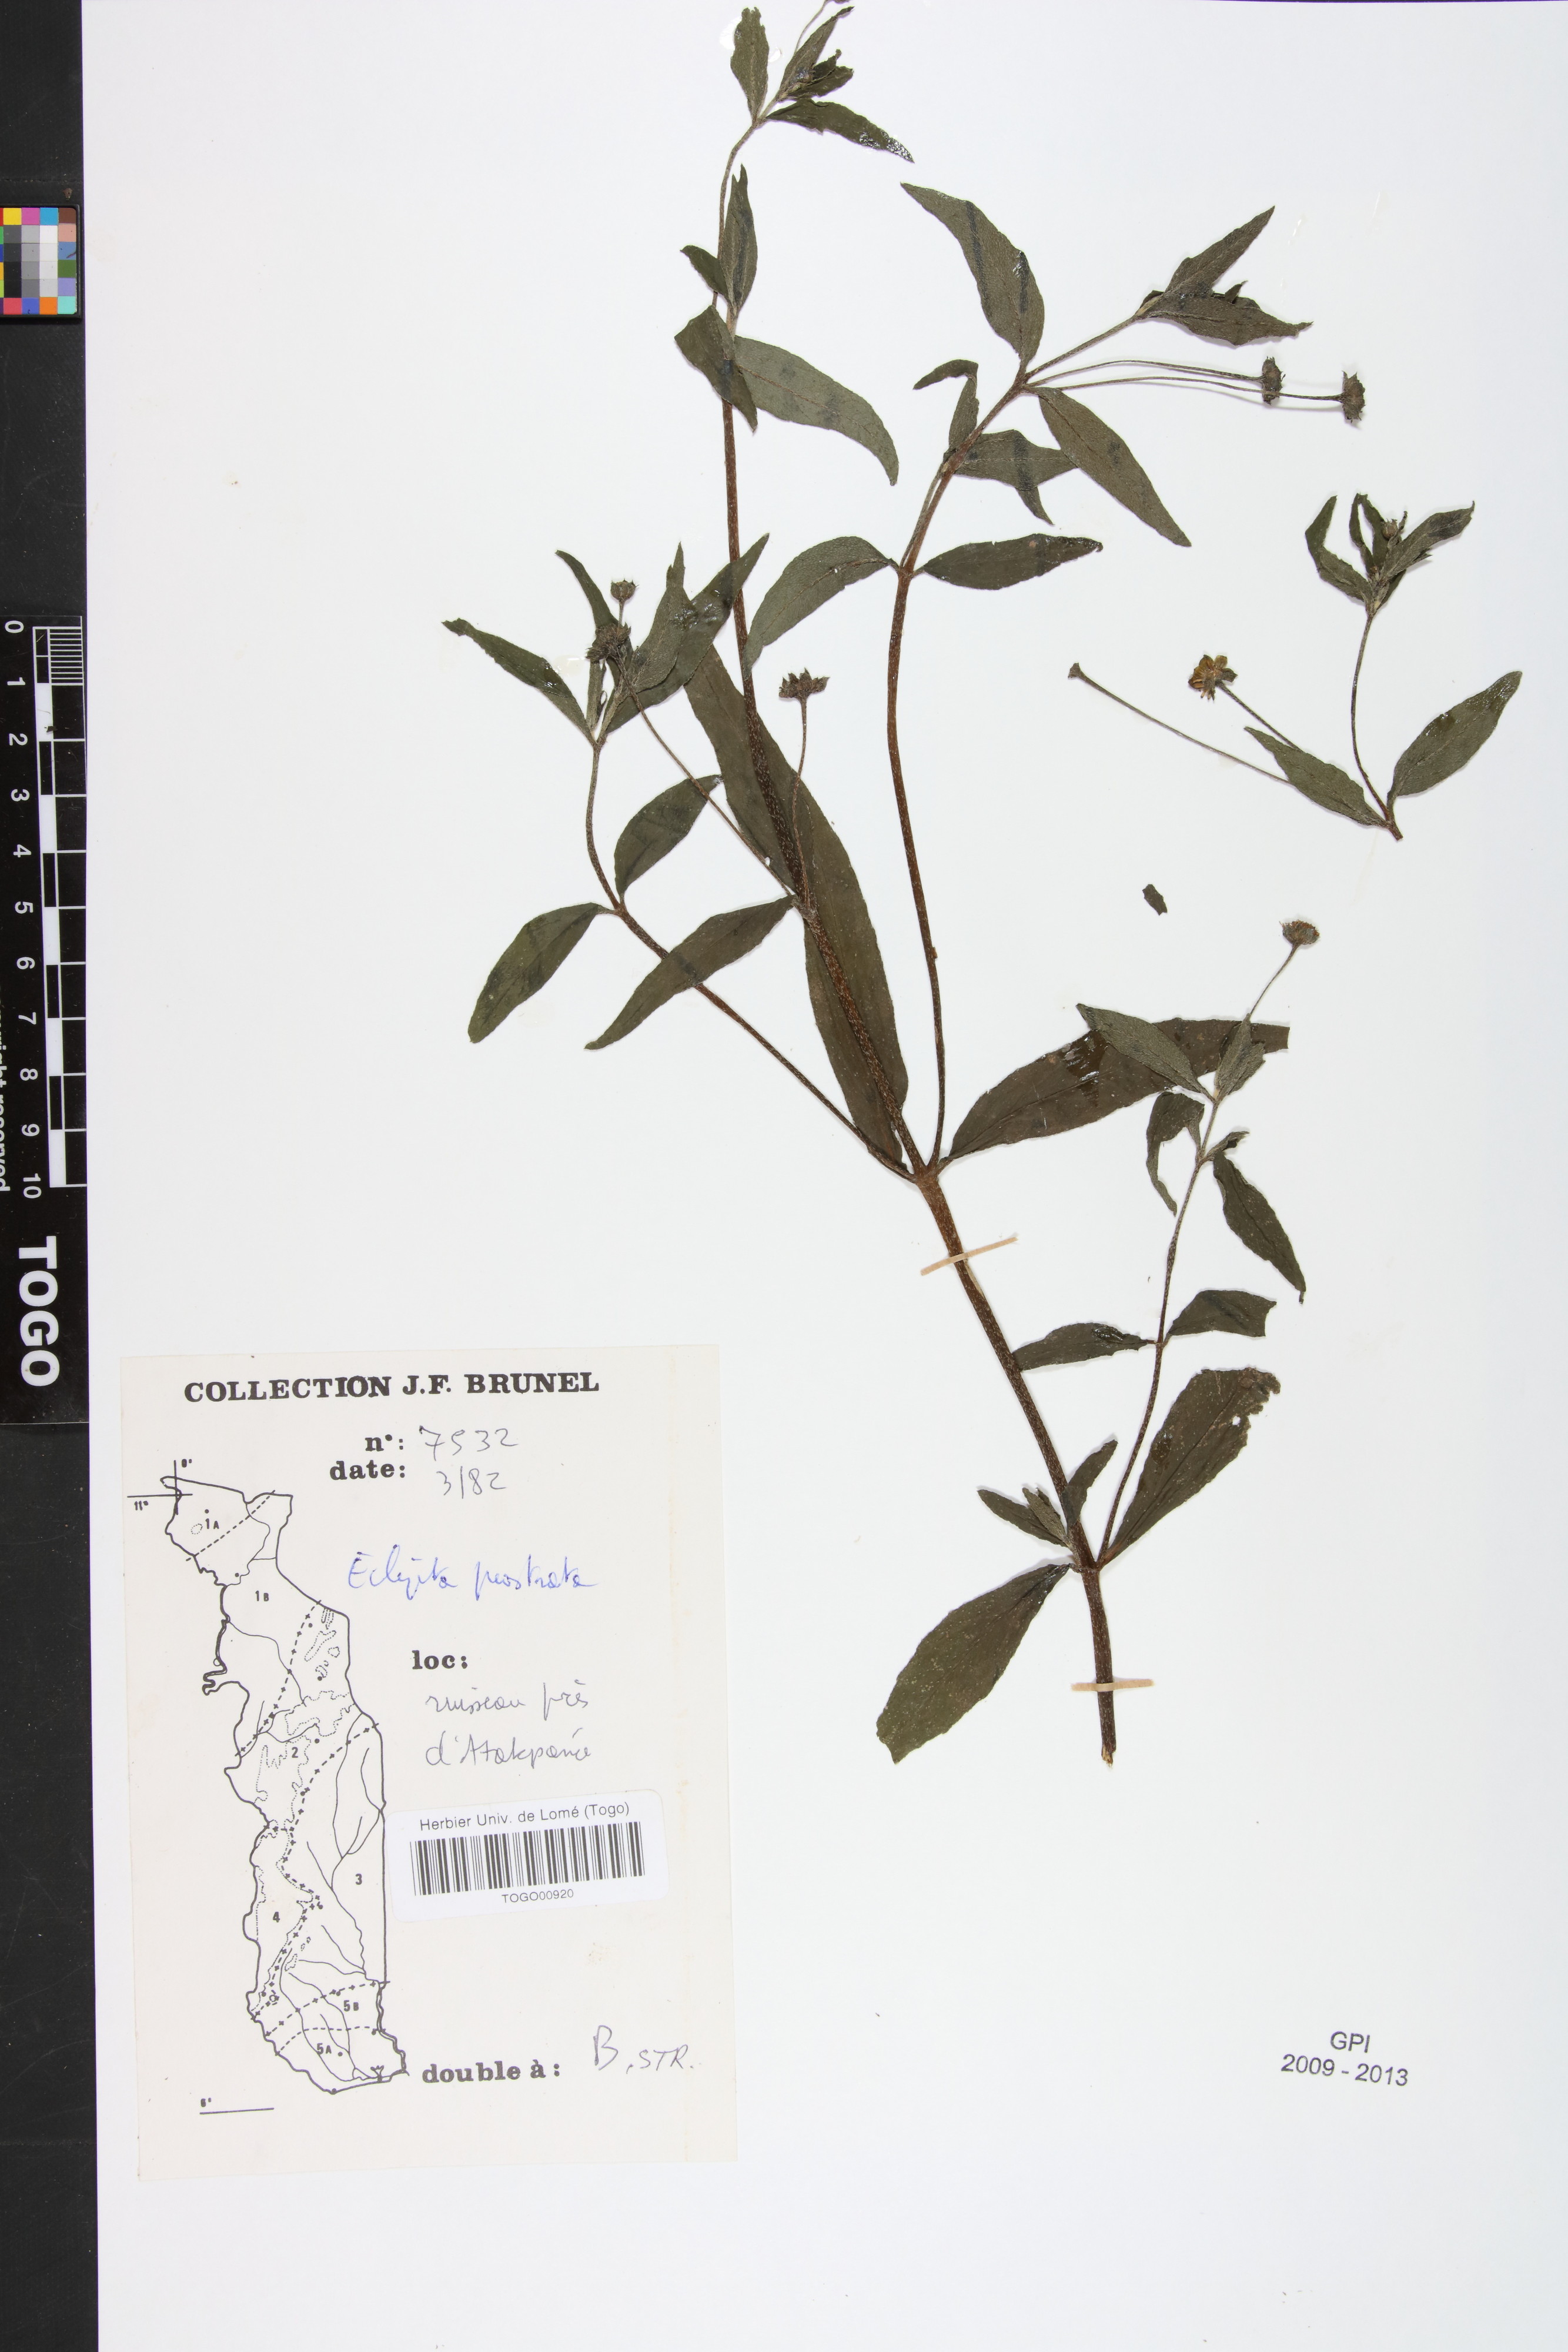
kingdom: Plantae
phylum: Tracheophyta
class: Magnoliopsida
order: Asterales
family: Asteraceae
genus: Eclipta
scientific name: Eclipta prostrata
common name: False daisy
